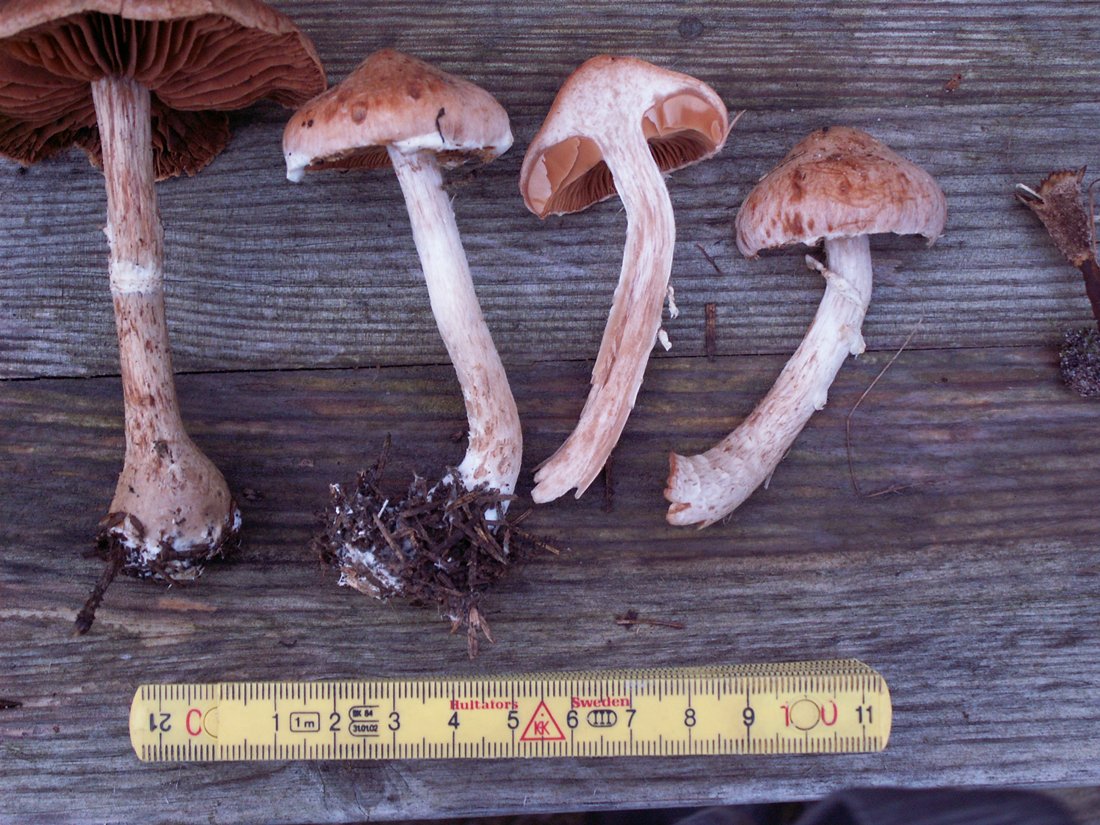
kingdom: Fungi
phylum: Basidiomycota
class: Agaricomycetes
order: Agaricales
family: Cortinariaceae
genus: Cortinarius
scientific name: Cortinarius laniger
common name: teglbladet slørhat
